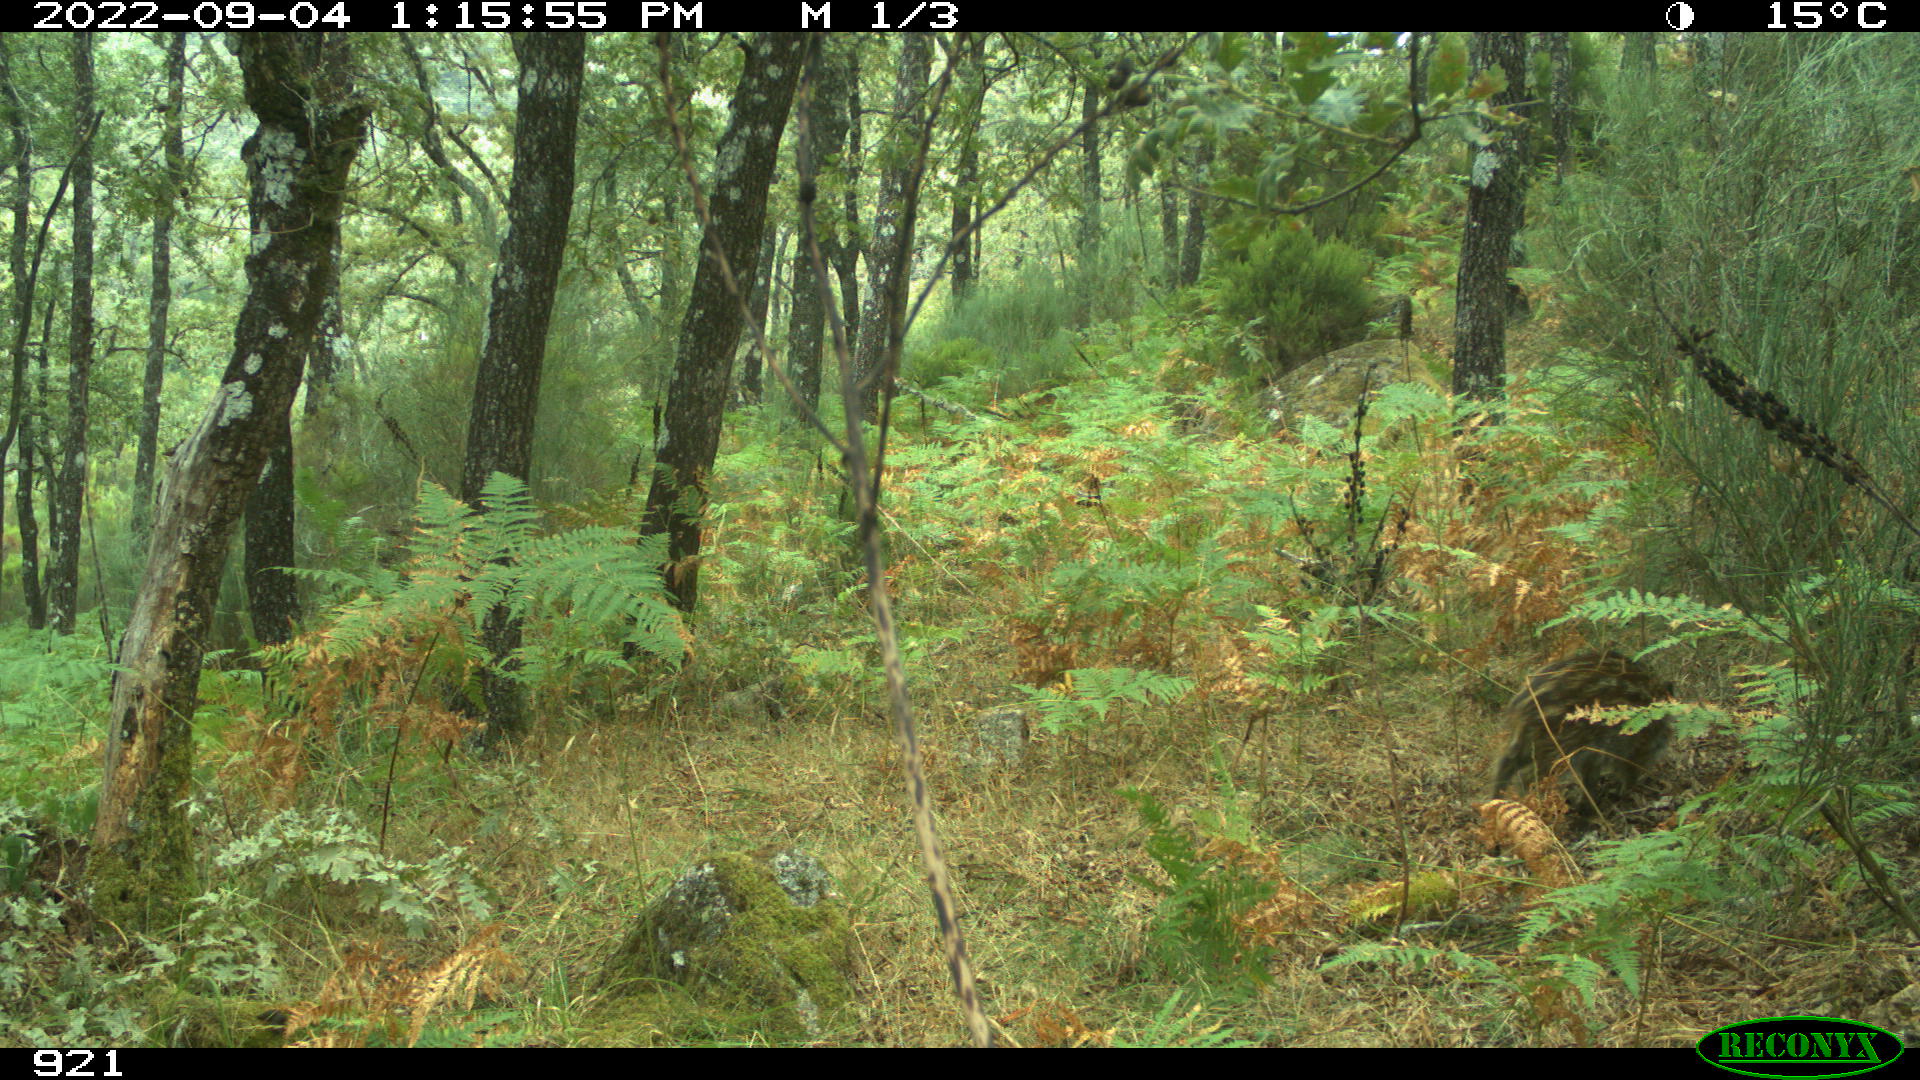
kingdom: Animalia
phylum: Chordata
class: Mammalia
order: Artiodactyla
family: Suidae
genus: Sus
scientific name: Sus scrofa
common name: Wild boar
